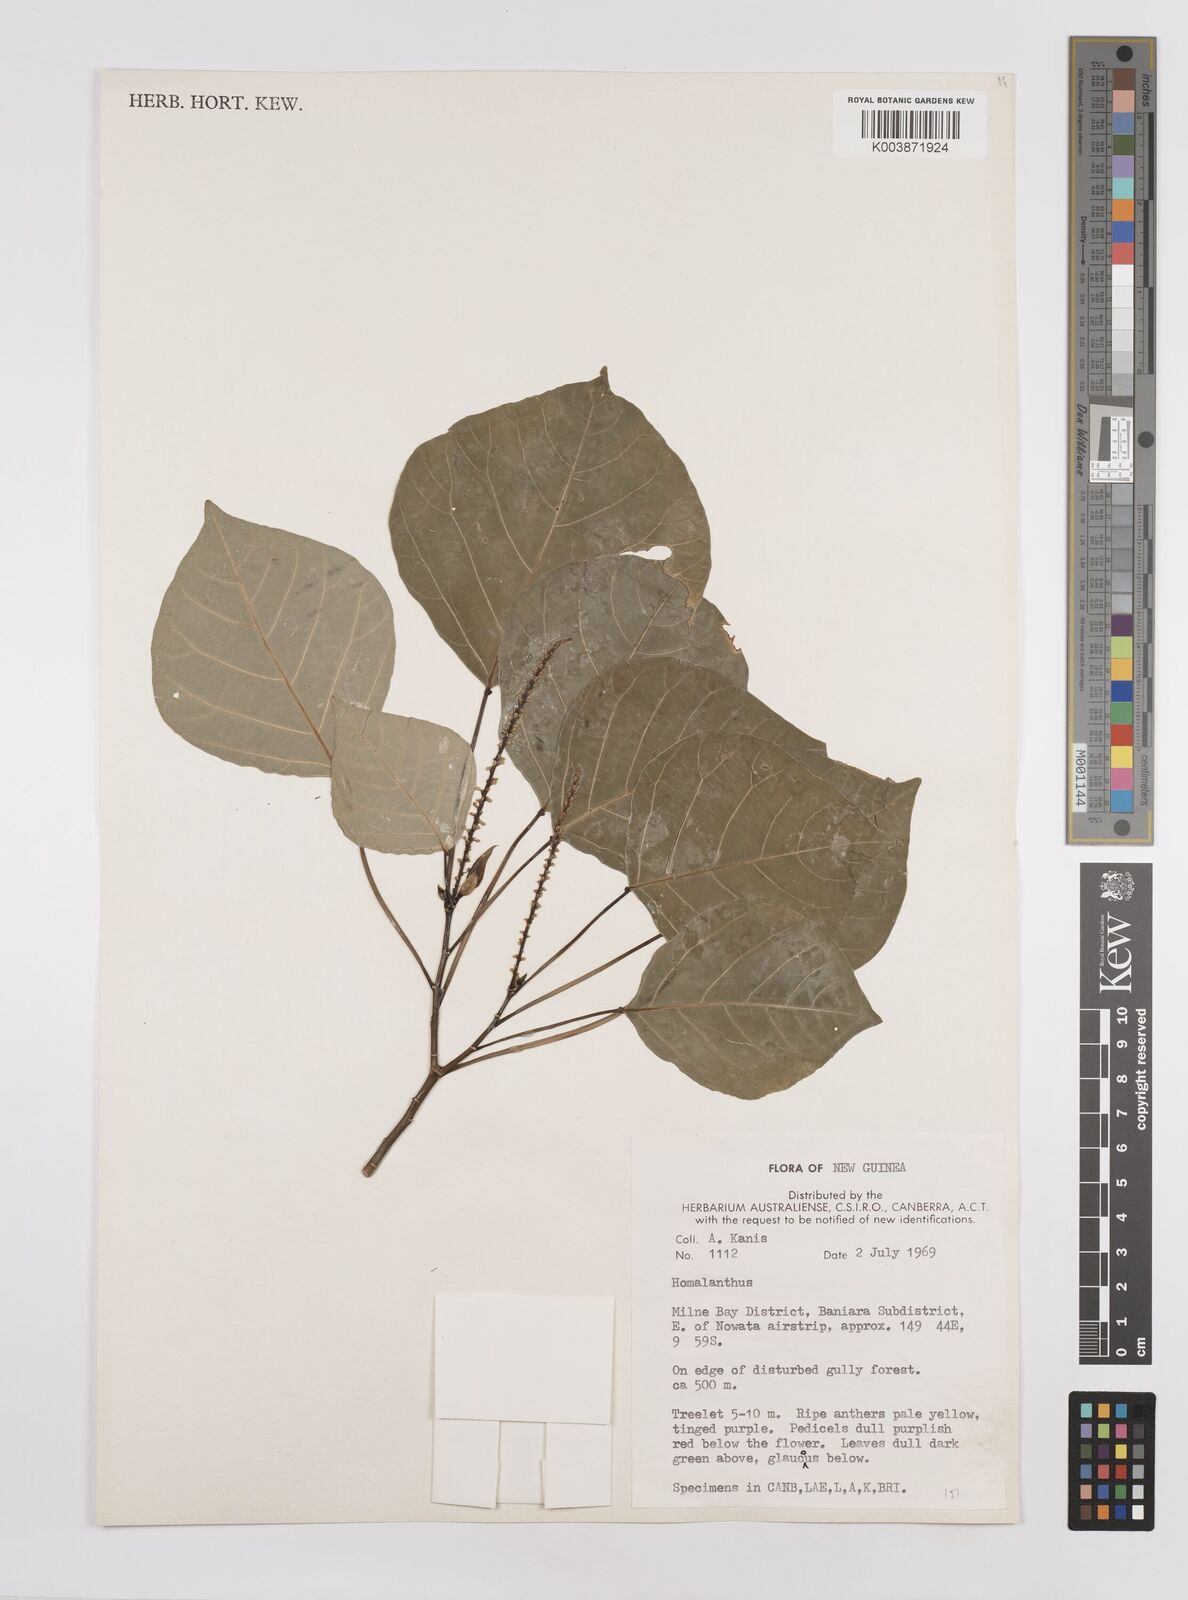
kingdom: Plantae
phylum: Tracheophyta
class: Magnoliopsida
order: Malpighiales
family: Euphorbiaceae
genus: Homalanthus
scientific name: Homalanthus novoguineensis
